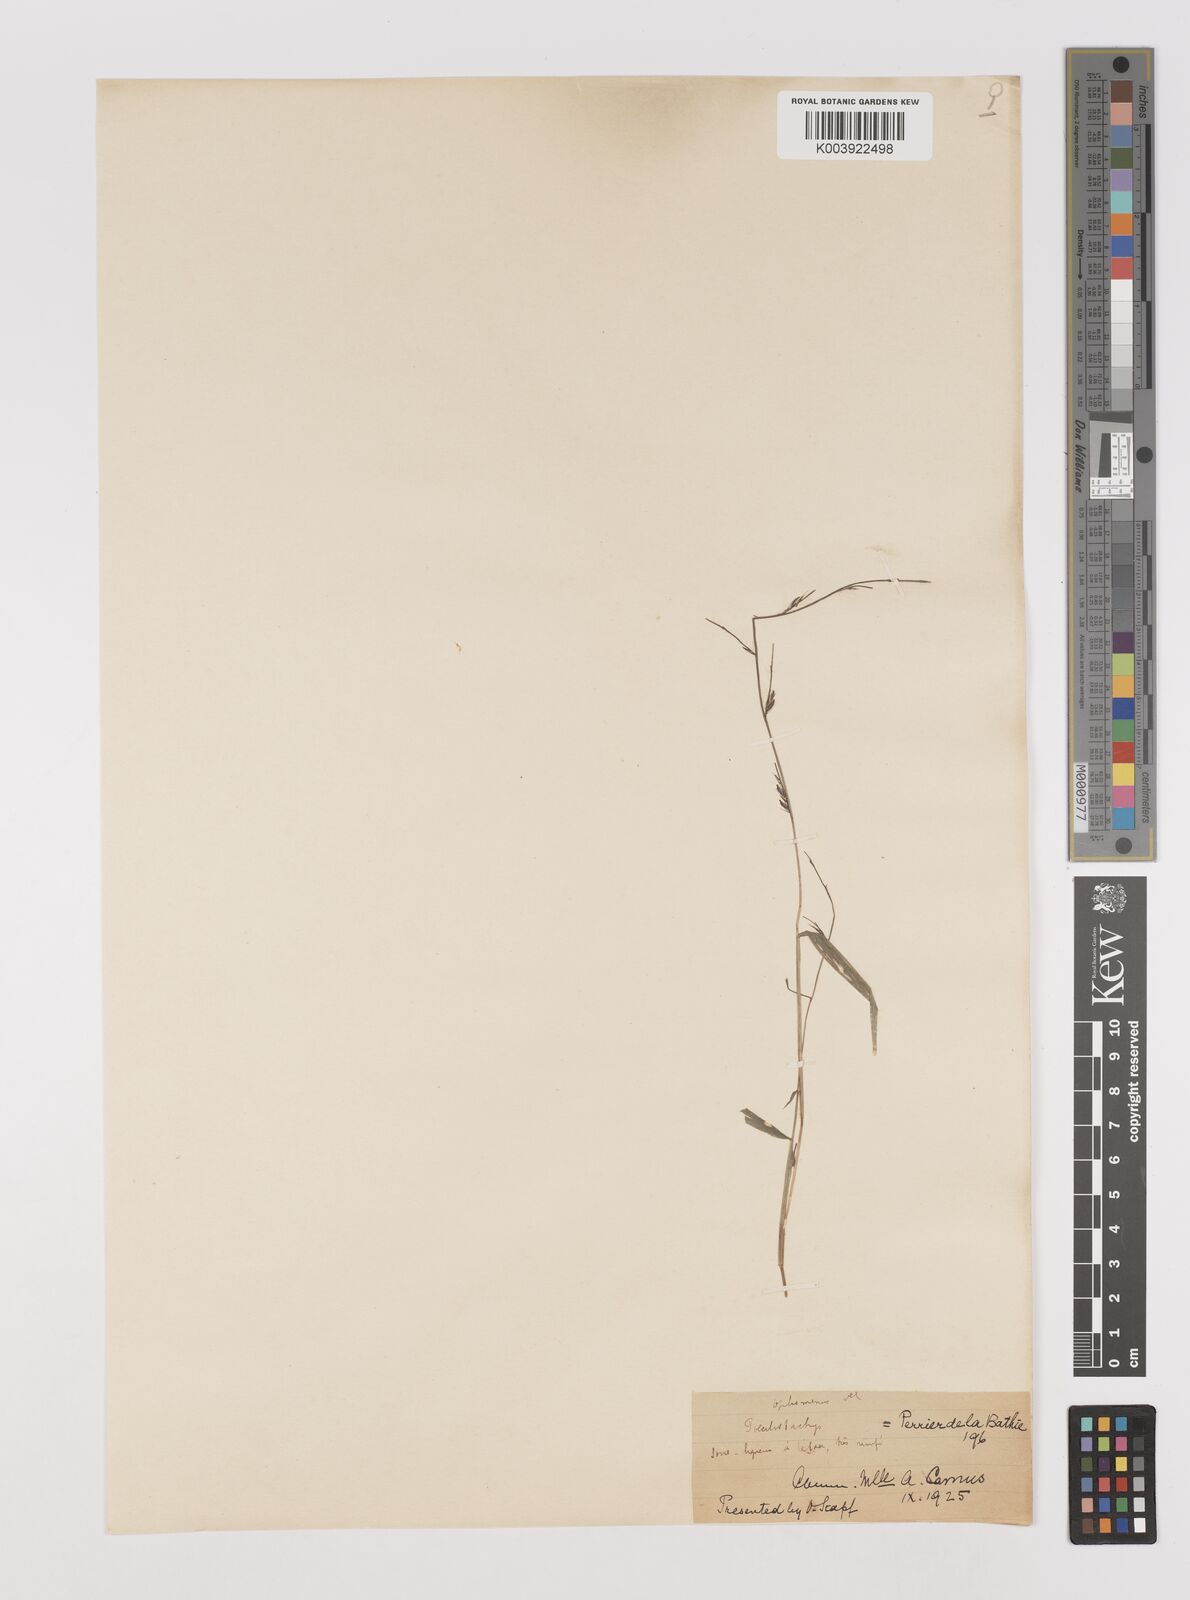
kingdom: Plantae
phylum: Tracheophyta
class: Liliopsida
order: Poales
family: Poaceae
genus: Poecilostachys
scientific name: Poecilostachys
